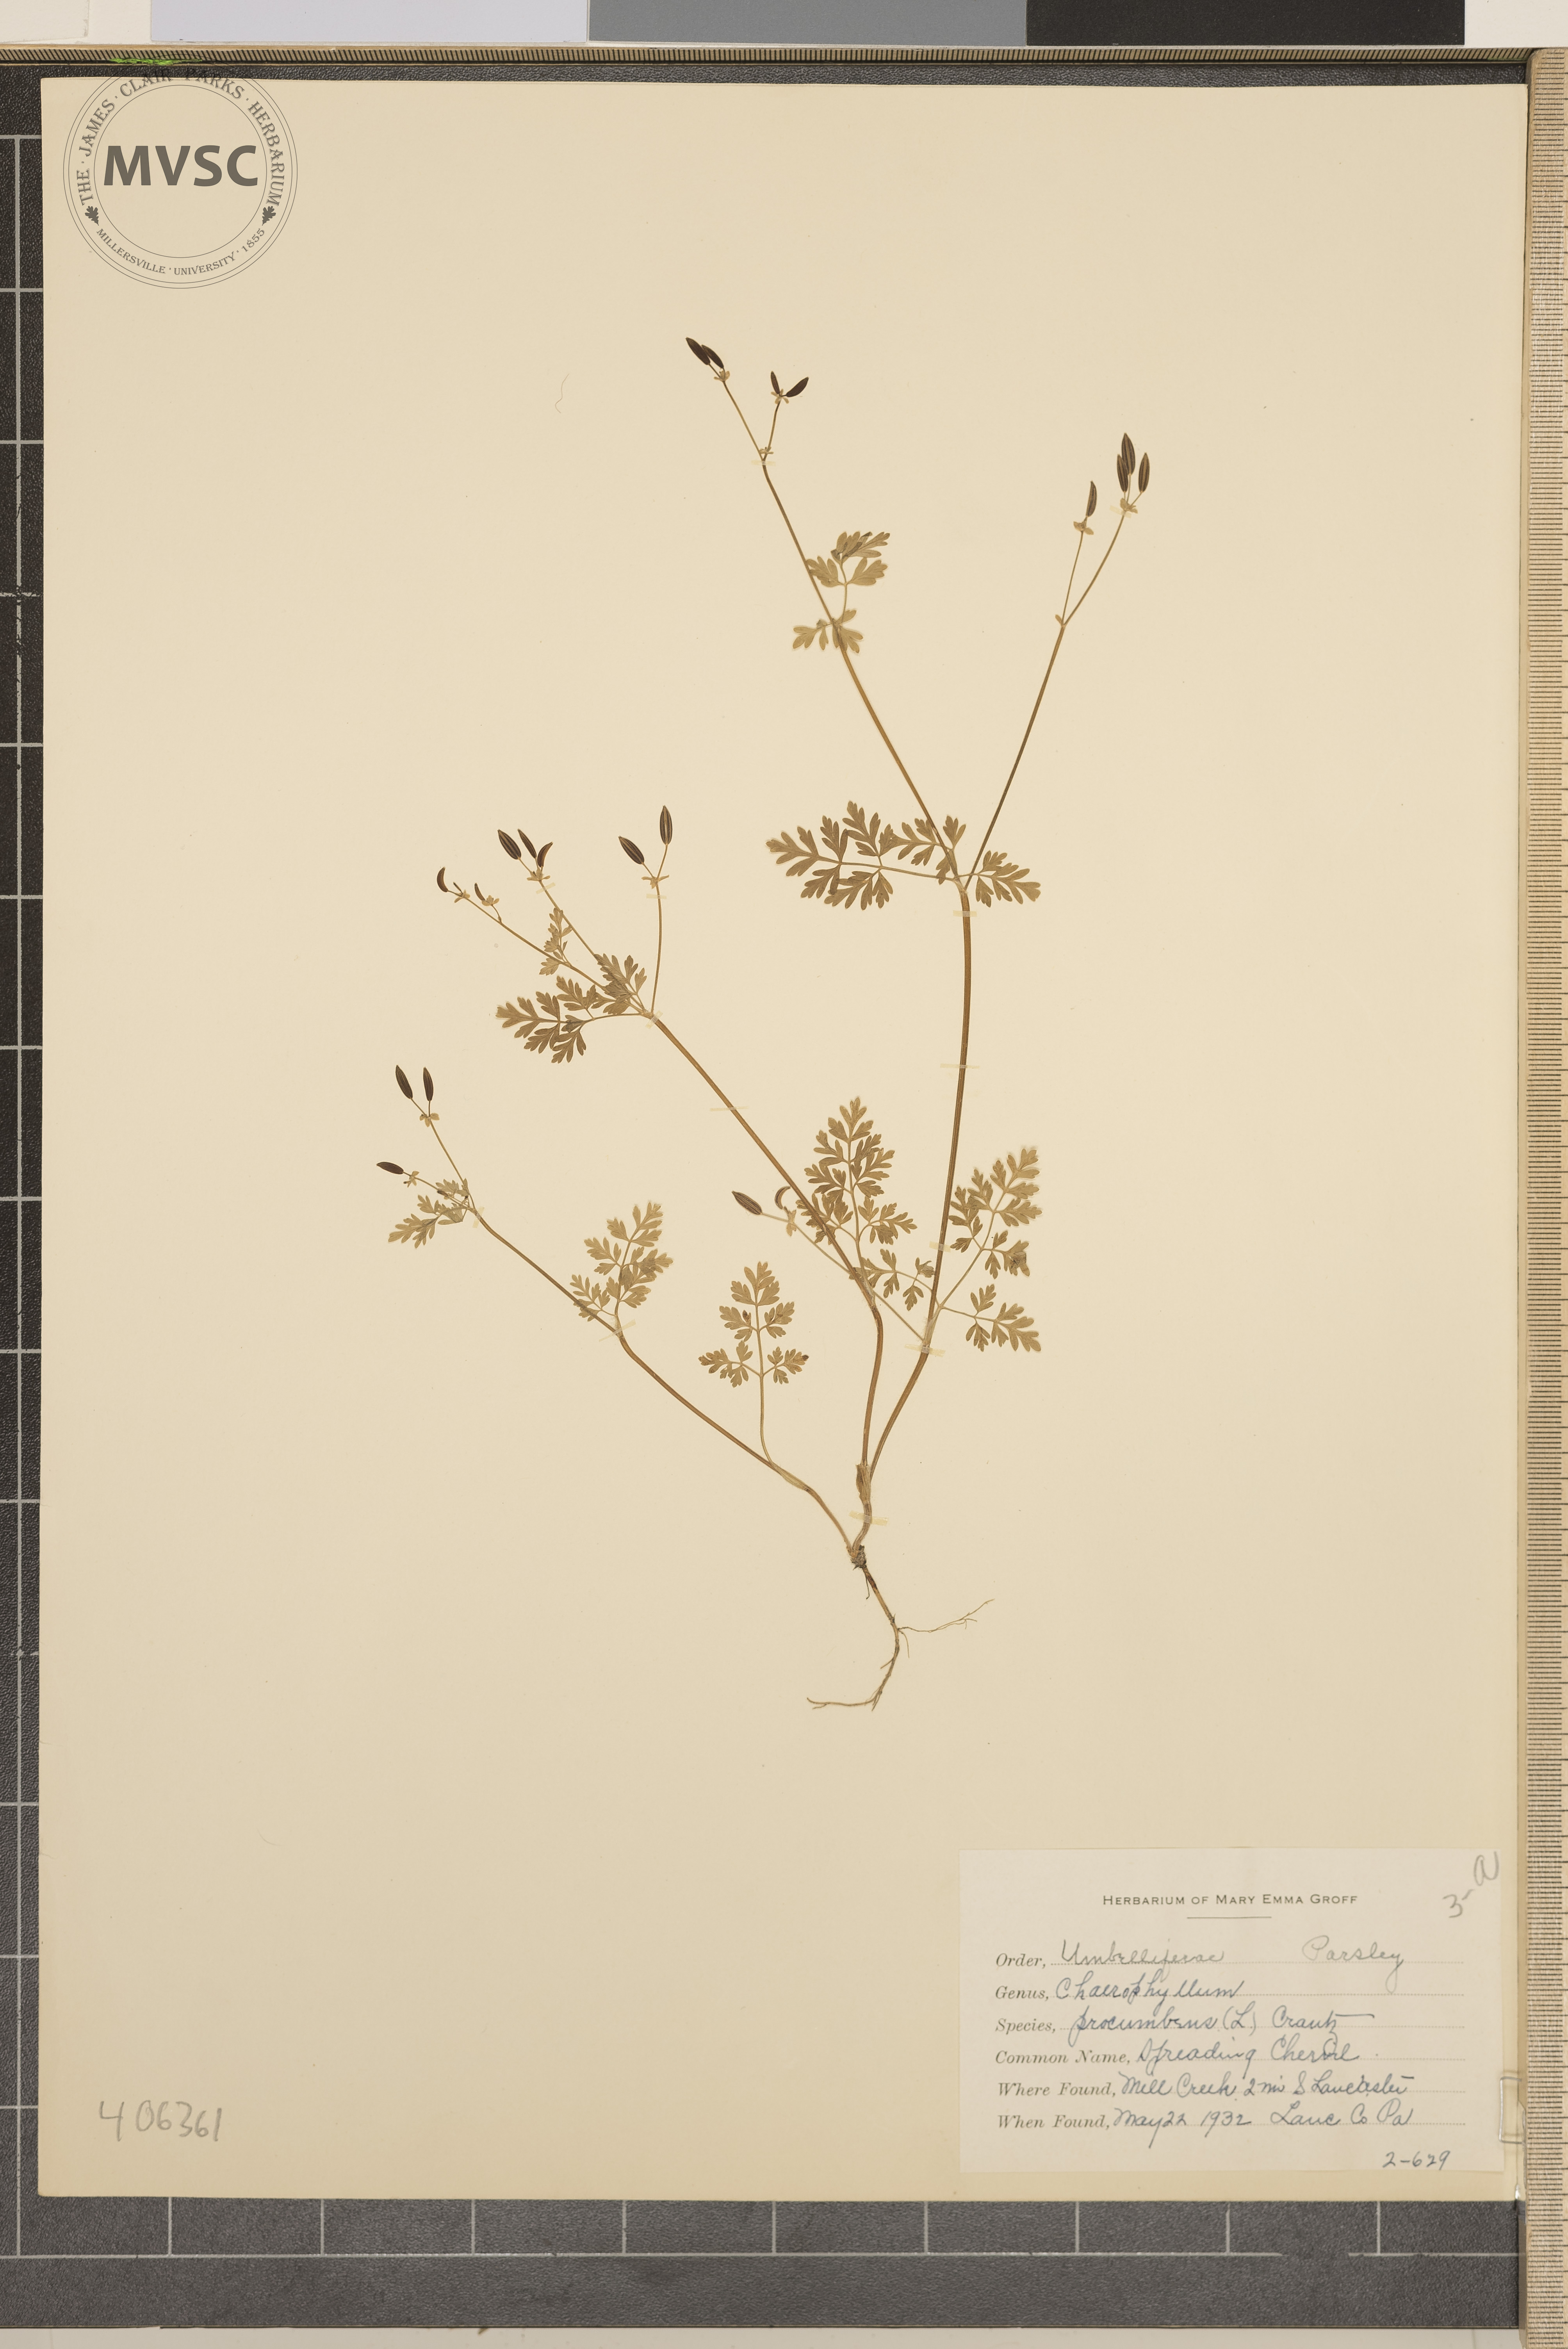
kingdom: Plantae
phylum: Tracheophyta
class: Magnoliopsida
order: Apiales
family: Apiaceae
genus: Chaerophyllum
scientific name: Chaerophyllum procumbens
